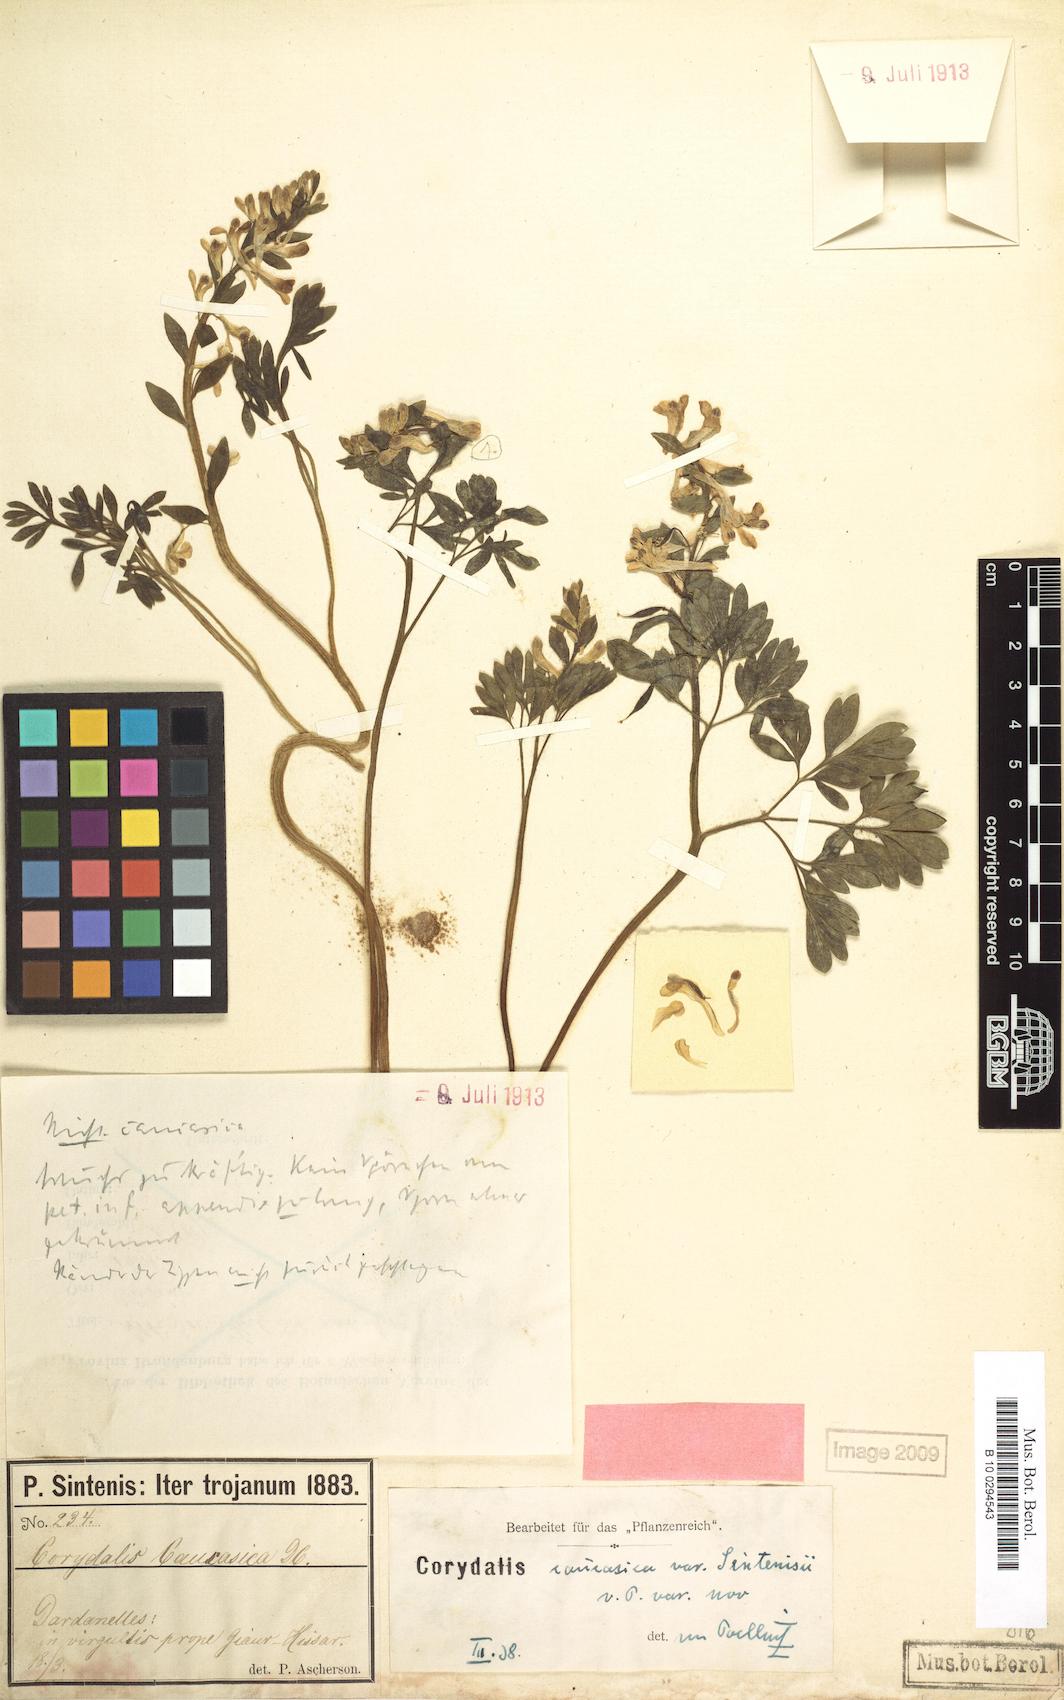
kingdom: Plantae
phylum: Tracheophyta
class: Magnoliopsida
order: Ranunculales
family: Papaveraceae
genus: Corydalis
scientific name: Corydalis integra
